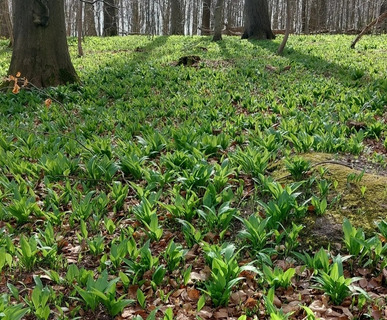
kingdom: Plantae
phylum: Tracheophyta
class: Liliopsida
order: Asparagales
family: Amaryllidaceae
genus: Allium
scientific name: Allium ursinum
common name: Rams-løg
